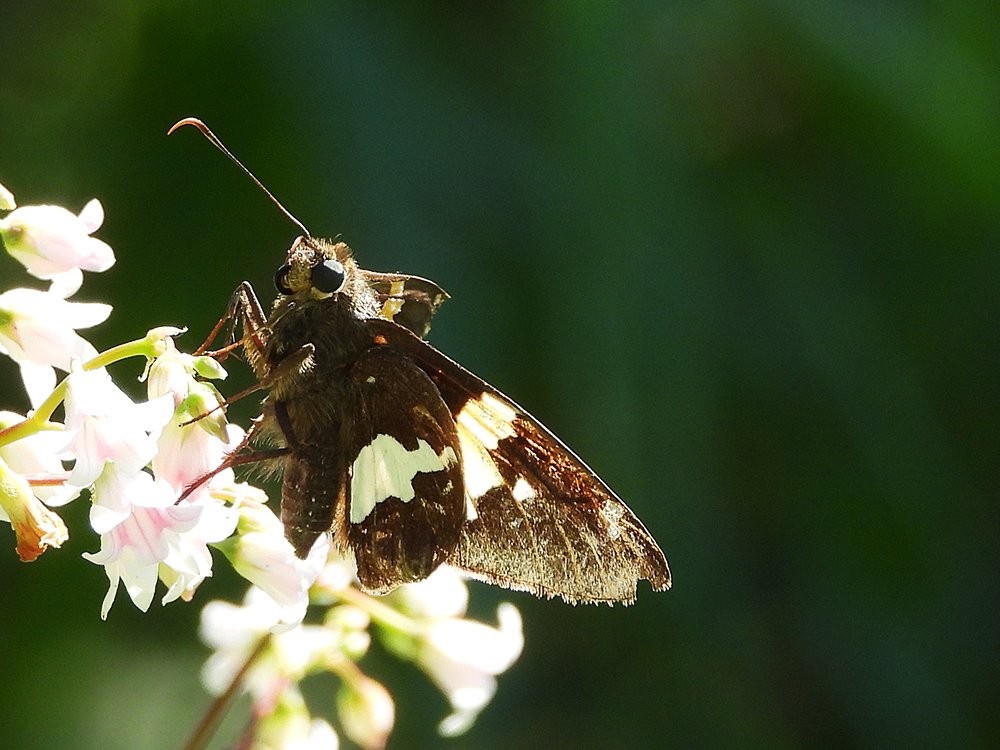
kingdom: Animalia
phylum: Arthropoda
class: Insecta
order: Lepidoptera
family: Hesperiidae
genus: Epargyreus
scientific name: Epargyreus clarus
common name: Silver-spotted Skipper
